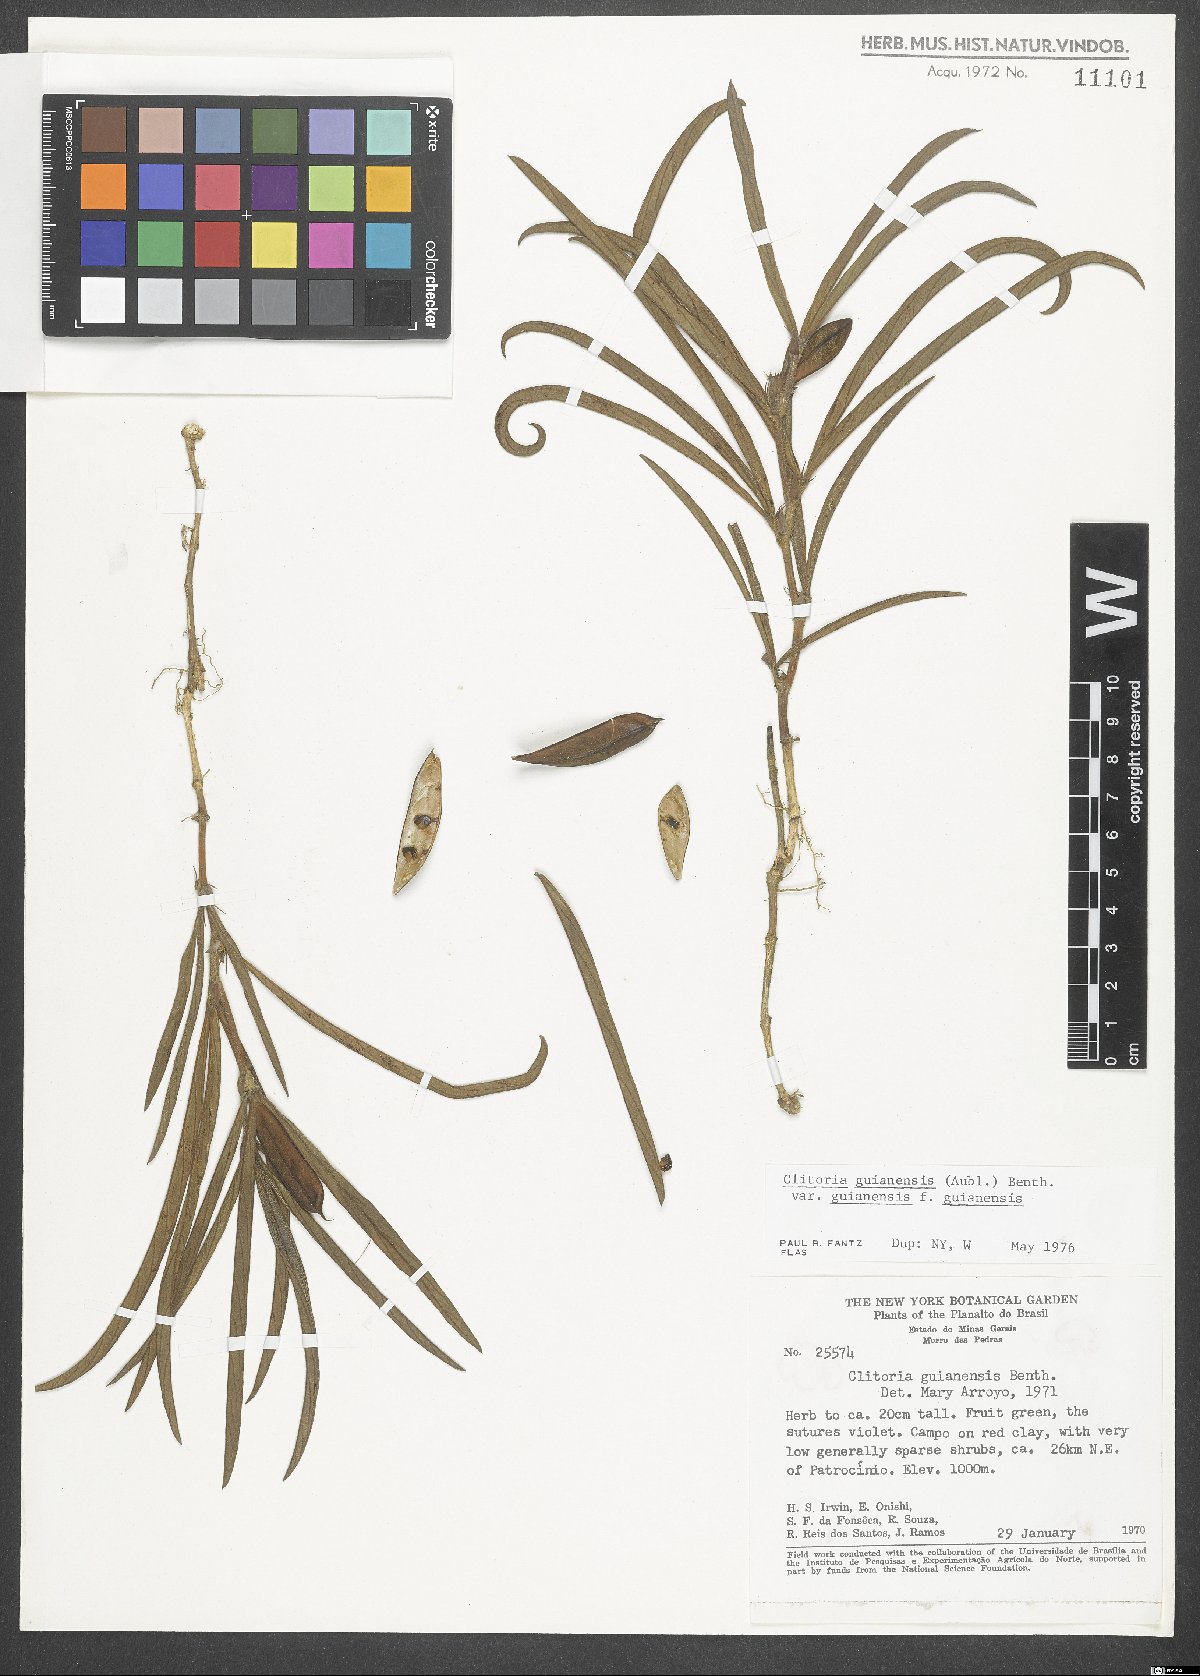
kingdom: Plantae
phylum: Tracheophyta
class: Magnoliopsida
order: Fabales
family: Fabaceae
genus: Clitoria
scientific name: Clitoria guianensis
